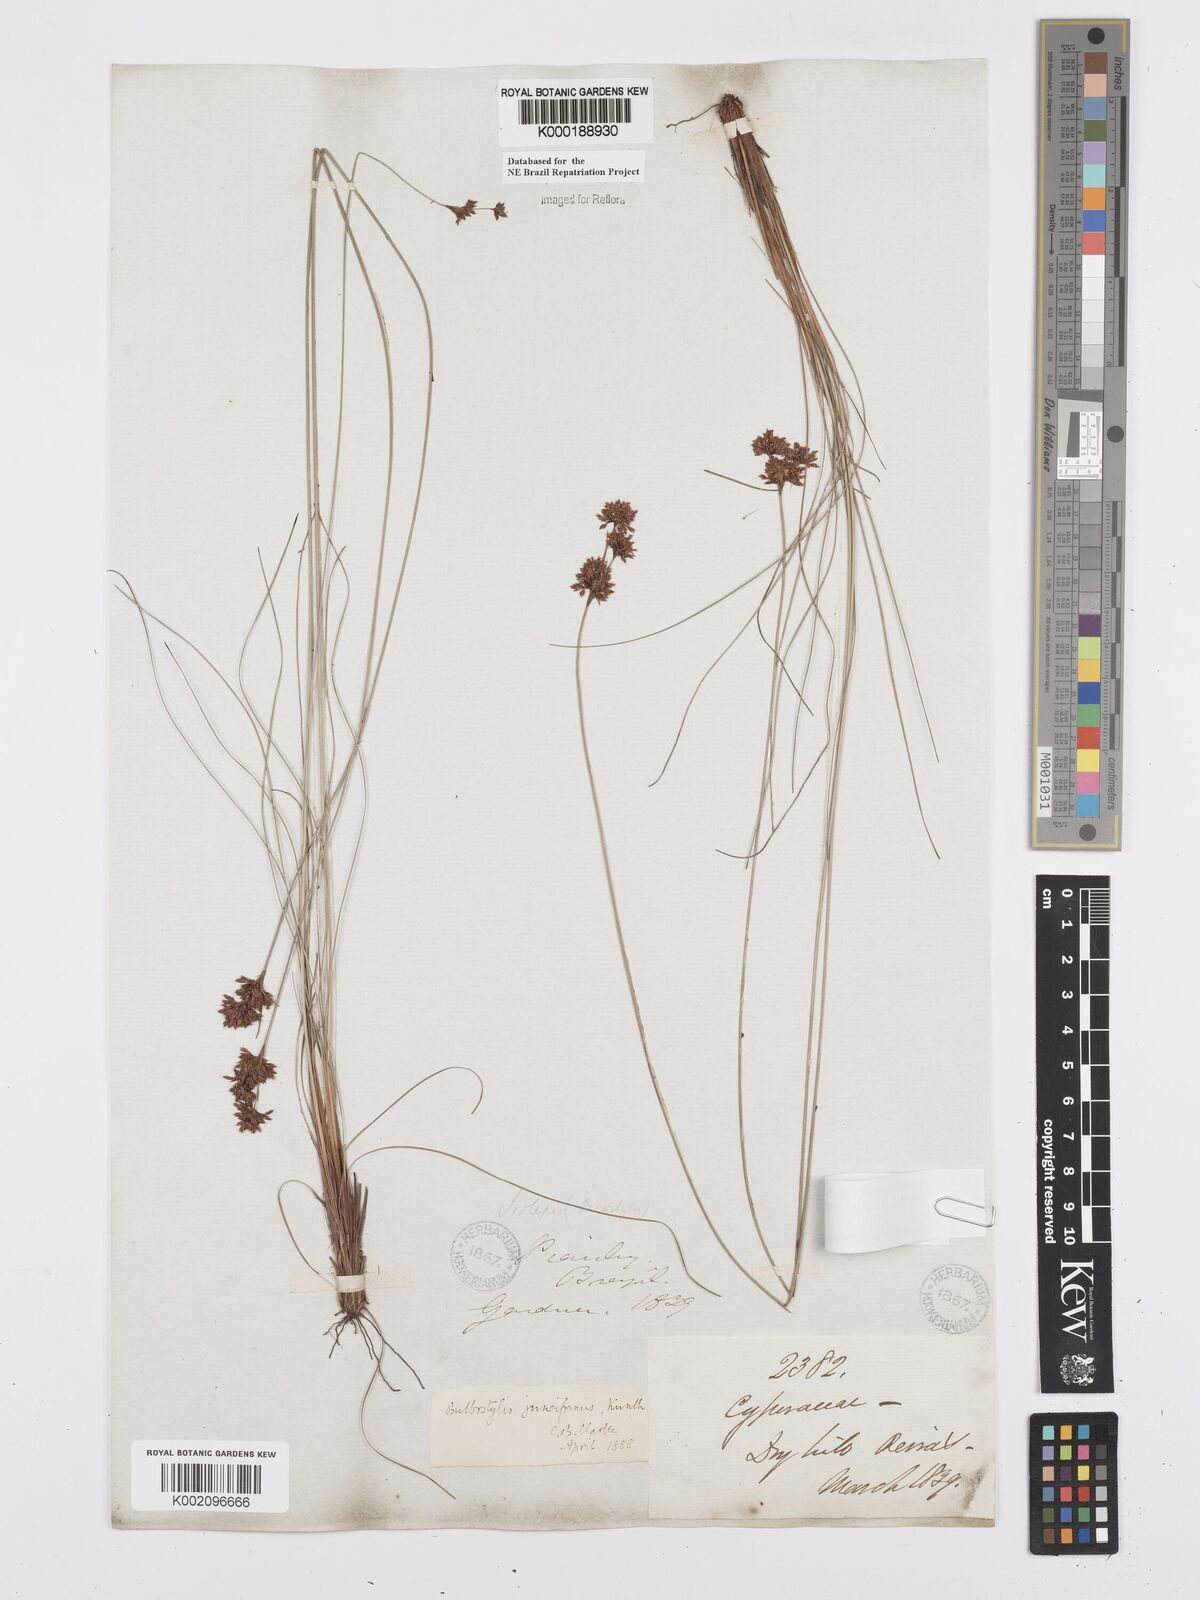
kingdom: Plantae
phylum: Tracheophyta
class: Liliopsida
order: Poales
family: Cyperaceae
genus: Bulbostylis
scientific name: Bulbostylis junciformis
